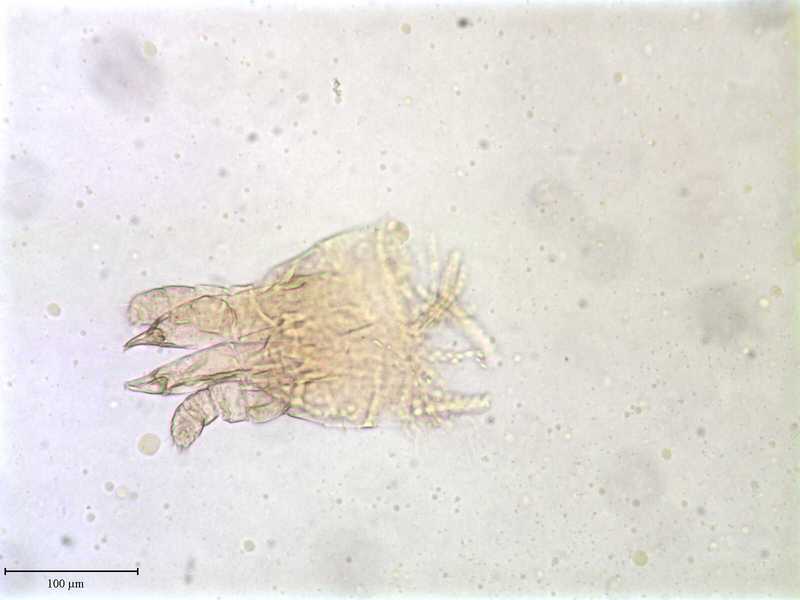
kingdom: Animalia
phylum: Arthropoda
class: Arachnida
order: Mesostigmata
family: Entonyssidae
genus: Entophionyssus
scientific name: Entophionyssus glasmacheri
